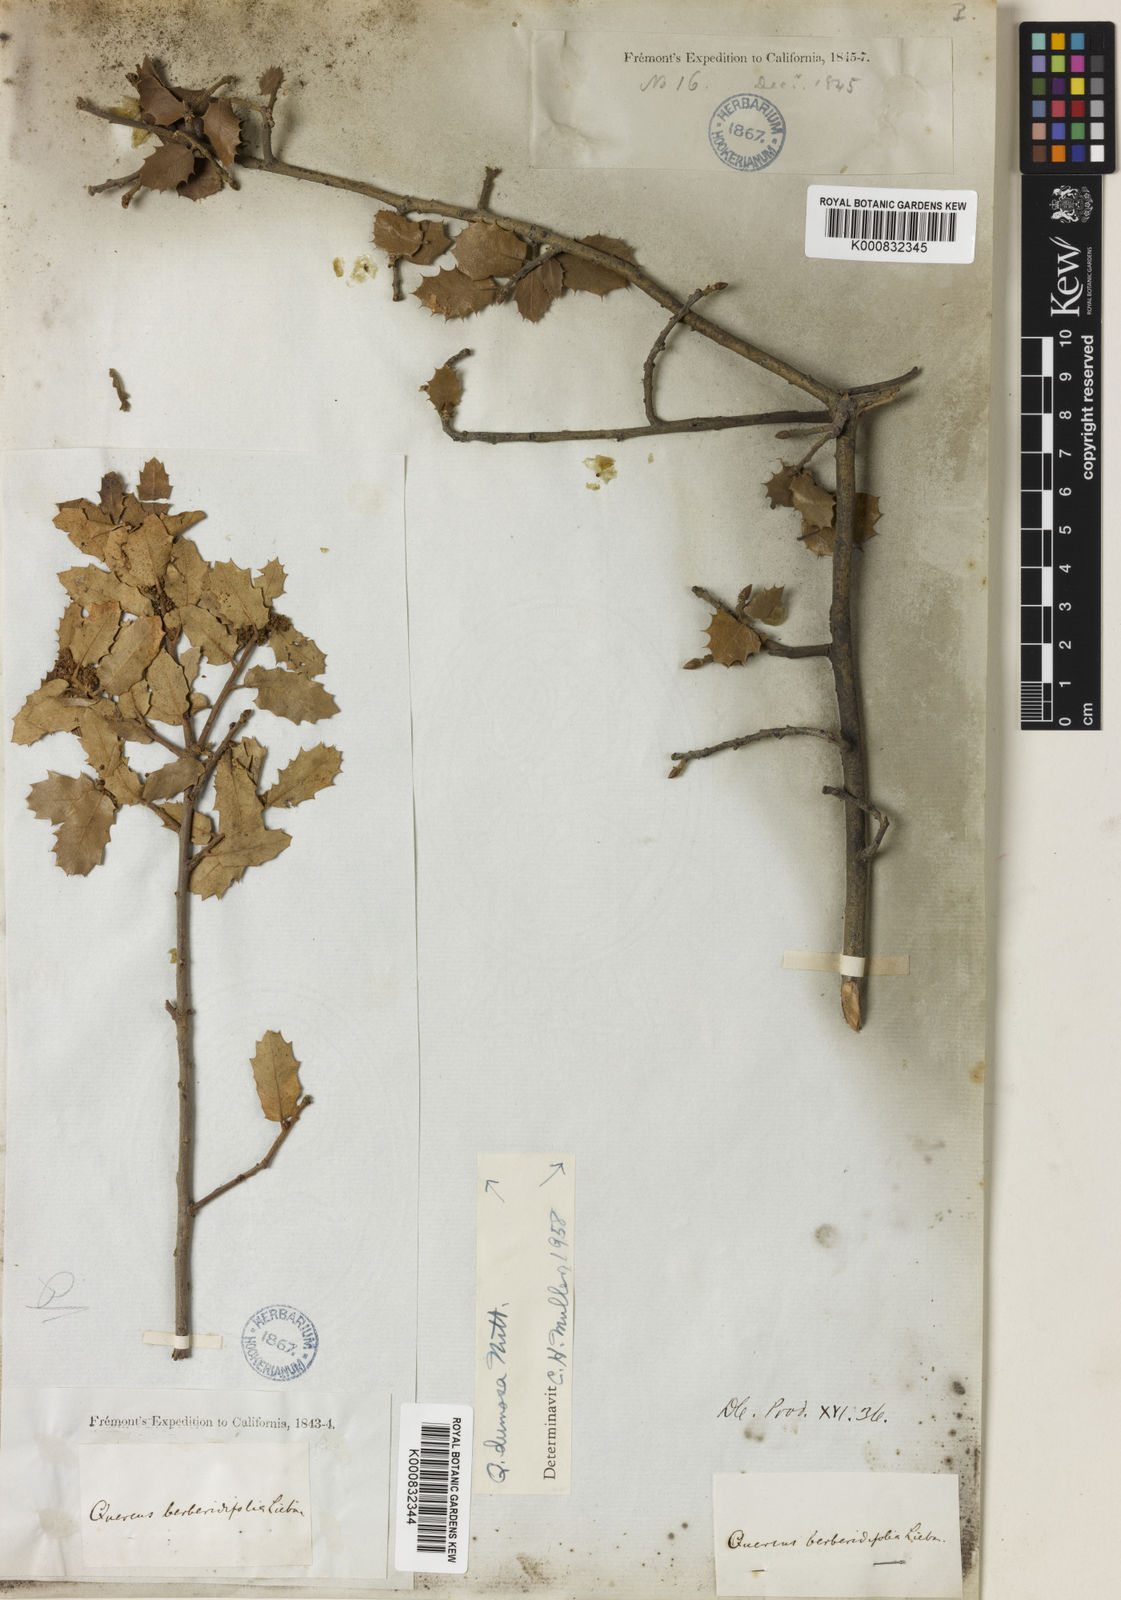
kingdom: Plantae
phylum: Tracheophyta
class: Magnoliopsida
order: Fagales
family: Fagaceae
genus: Quercus
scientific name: Quercus dumosa
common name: Coastal sage scrub oak
